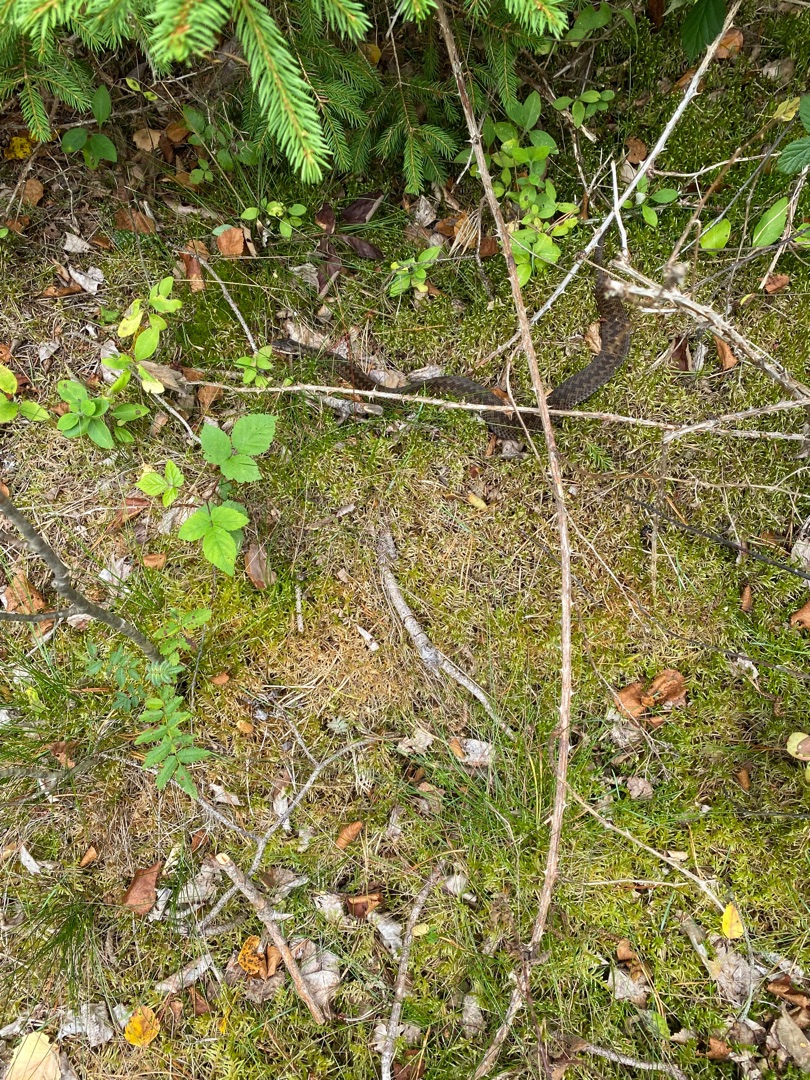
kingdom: Animalia
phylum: Chordata
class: Squamata
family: Viperidae
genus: Vipera
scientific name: Vipera berus
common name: Hugorm
